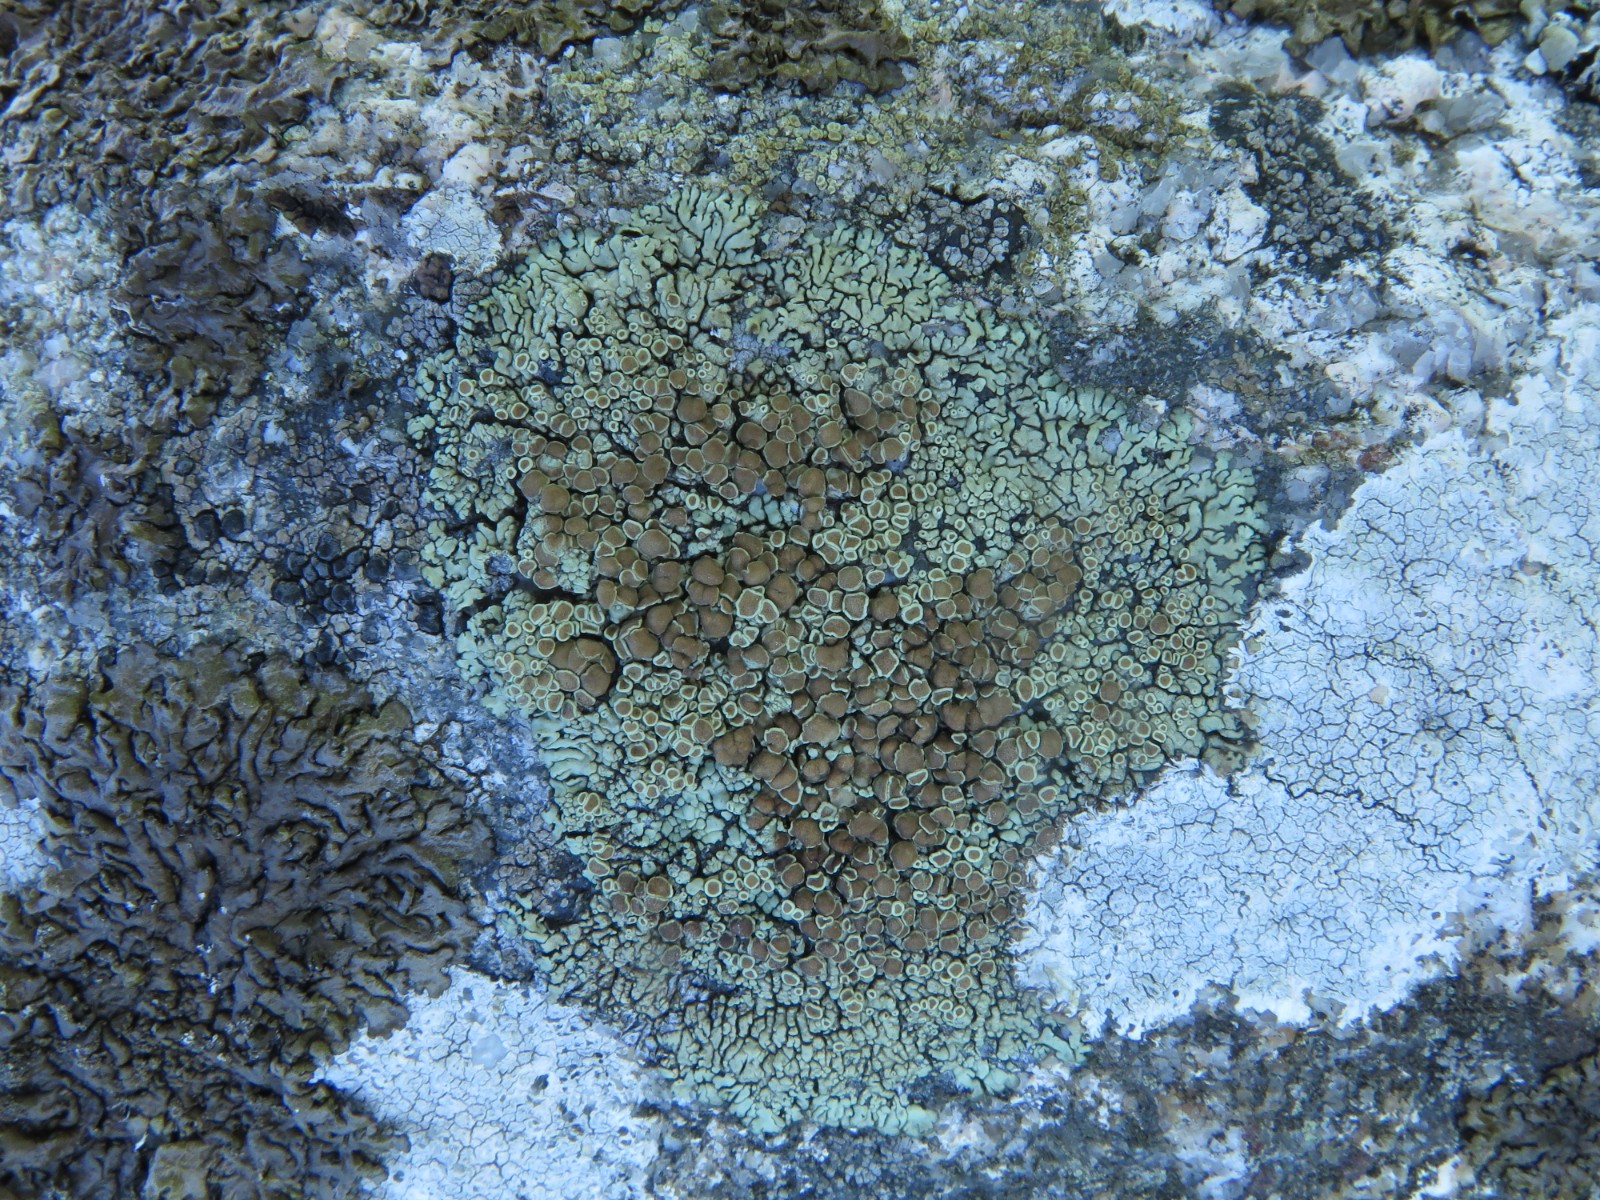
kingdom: Fungi
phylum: Ascomycota
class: Lecanoromycetes
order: Lecanorales
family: Lecanoraceae
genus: Protoparmeliopsis
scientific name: Protoparmeliopsis muralis
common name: randfliget kantskivelav
